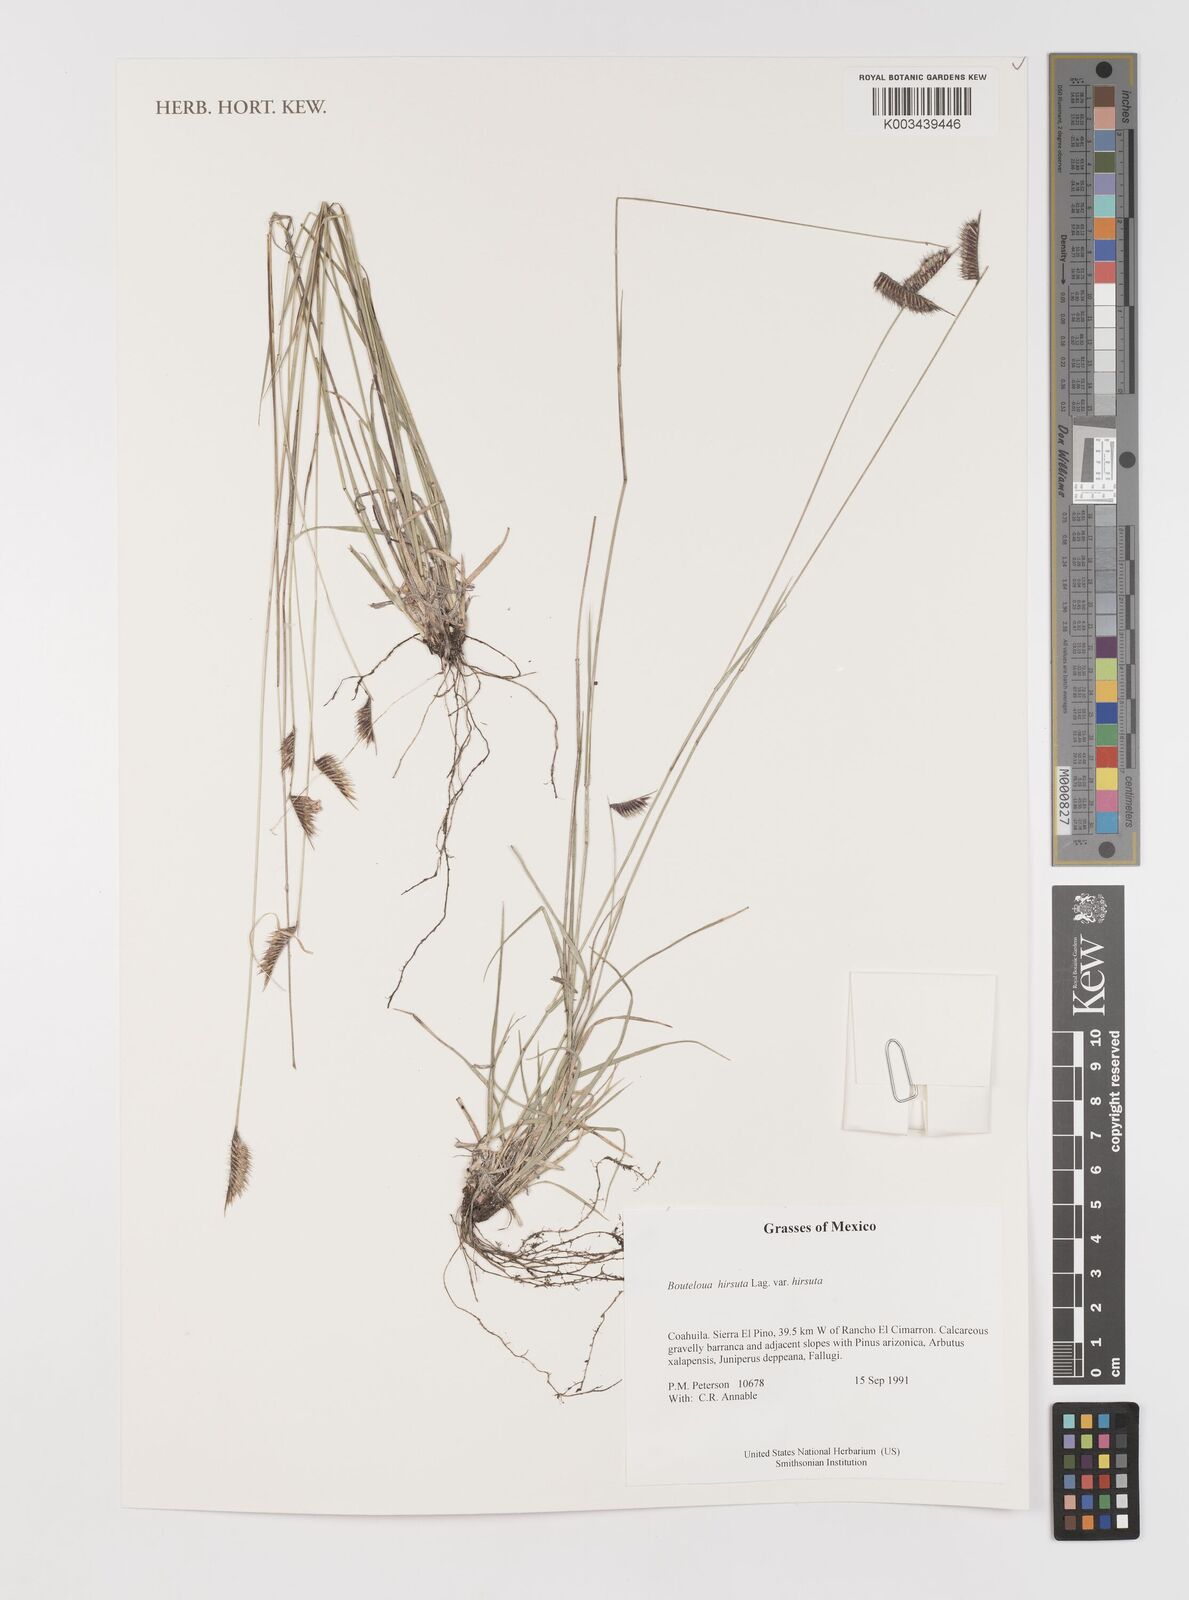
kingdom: Plantae
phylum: Tracheophyta
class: Liliopsida
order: Poales
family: Poaceae
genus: Bouteloua
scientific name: Bouteloua hirsuta
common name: Hairy grama
